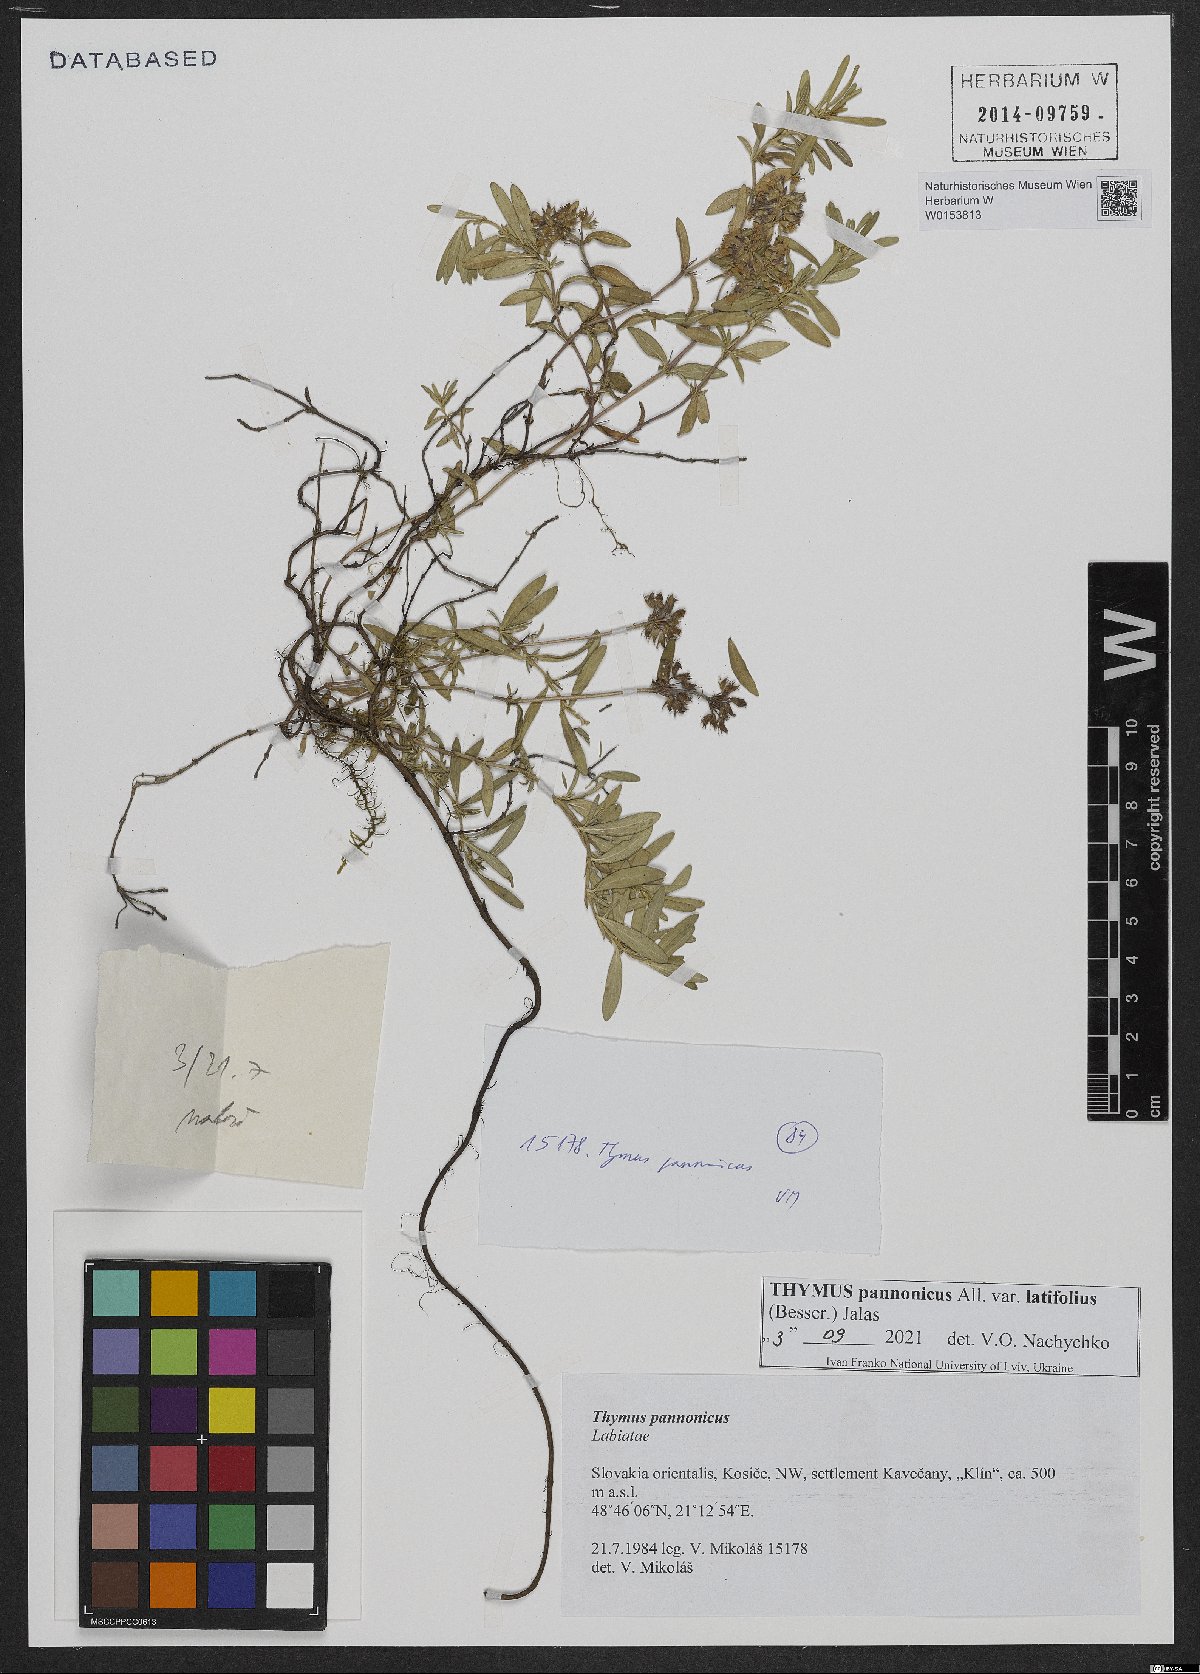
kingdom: Plantae
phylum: Tracheophyta
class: Magnoliopsida
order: Lamiales
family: Lamiaceae
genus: Thymus
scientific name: Thymus pannonicus
